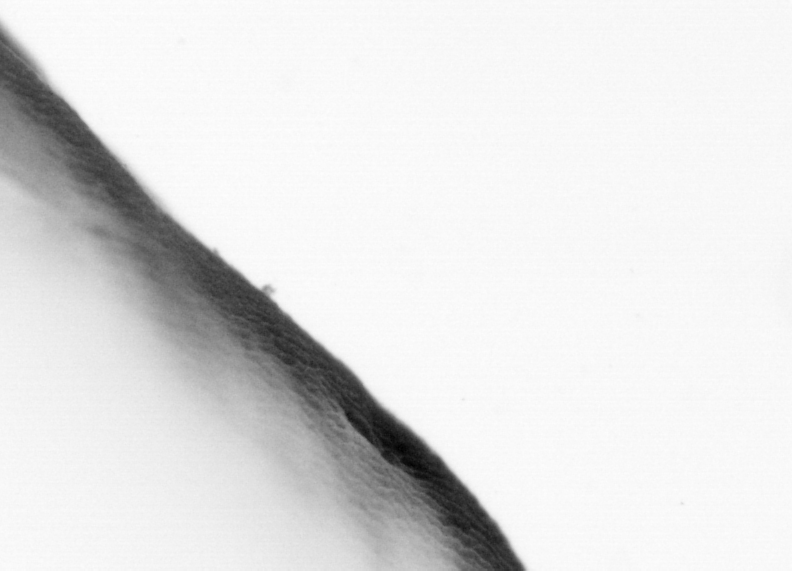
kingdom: Animalia
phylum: Chordata
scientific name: Chordata
